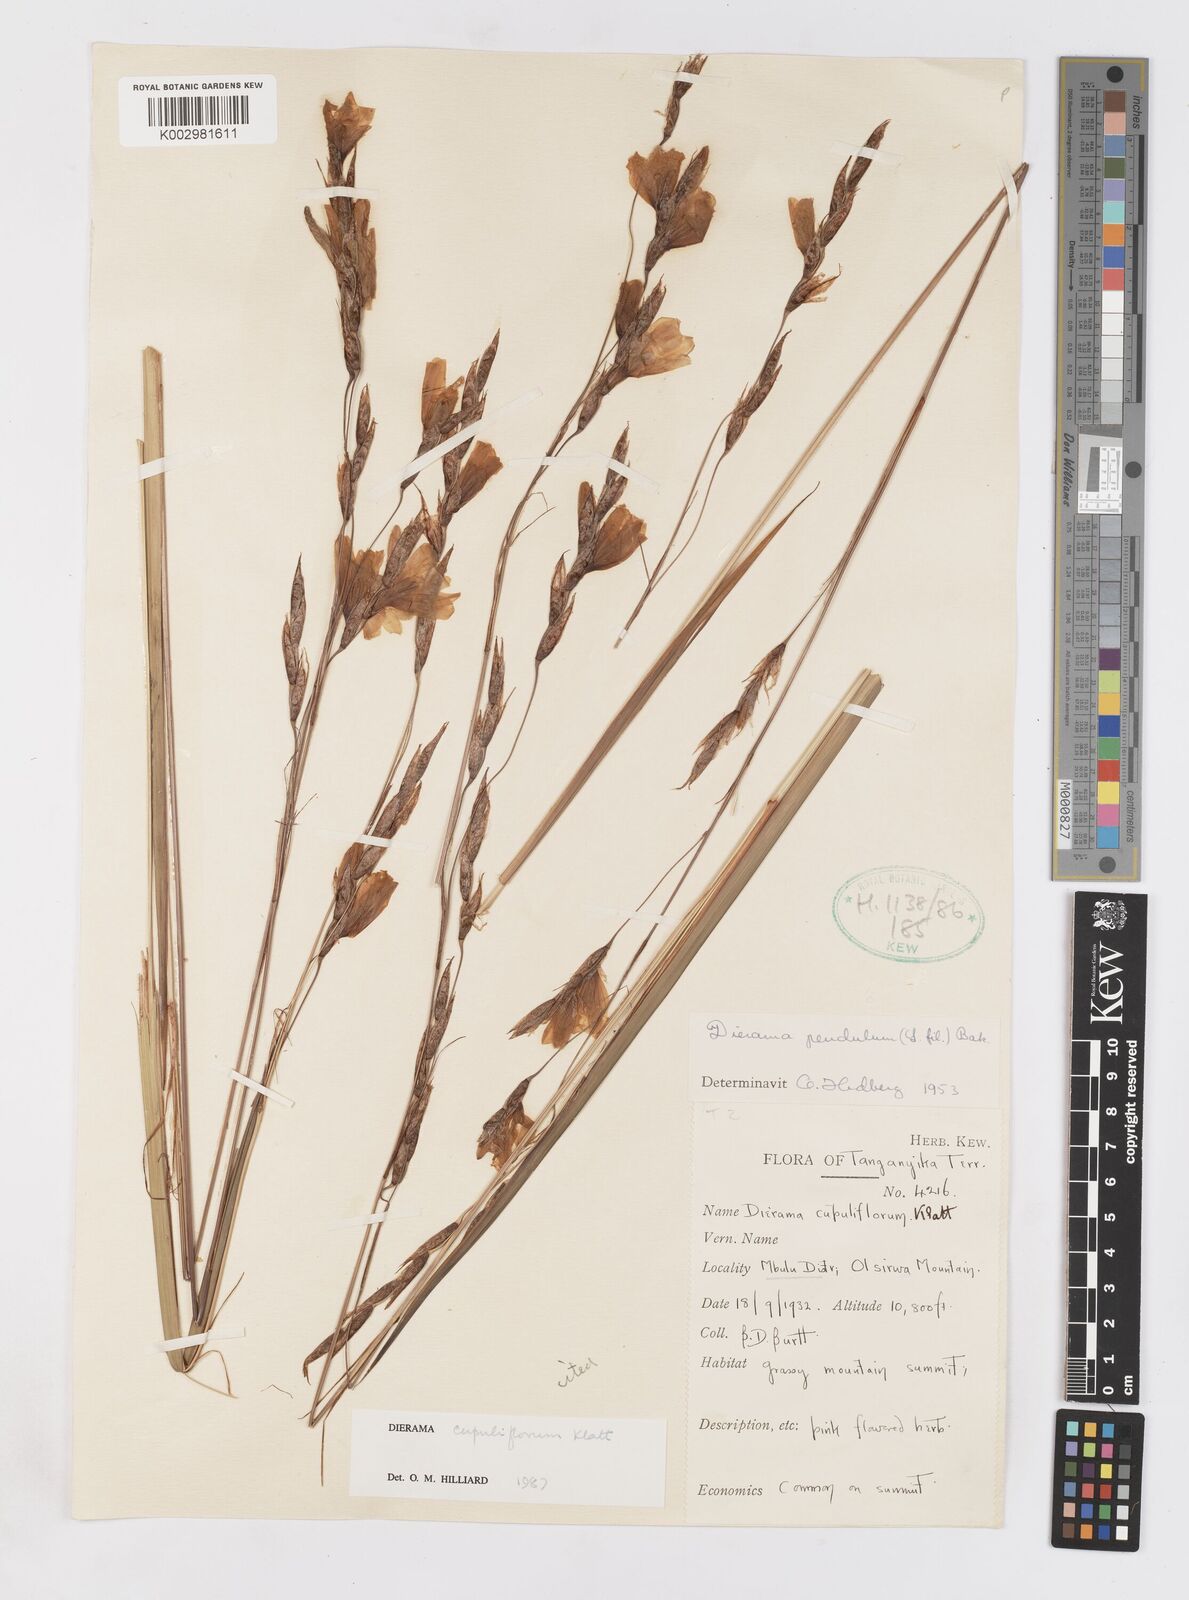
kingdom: Plantae
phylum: Tracheophyta
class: Liliopsida
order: Asparagales
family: Iridaceae
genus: Dierama
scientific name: Dierama cupuliflorum
